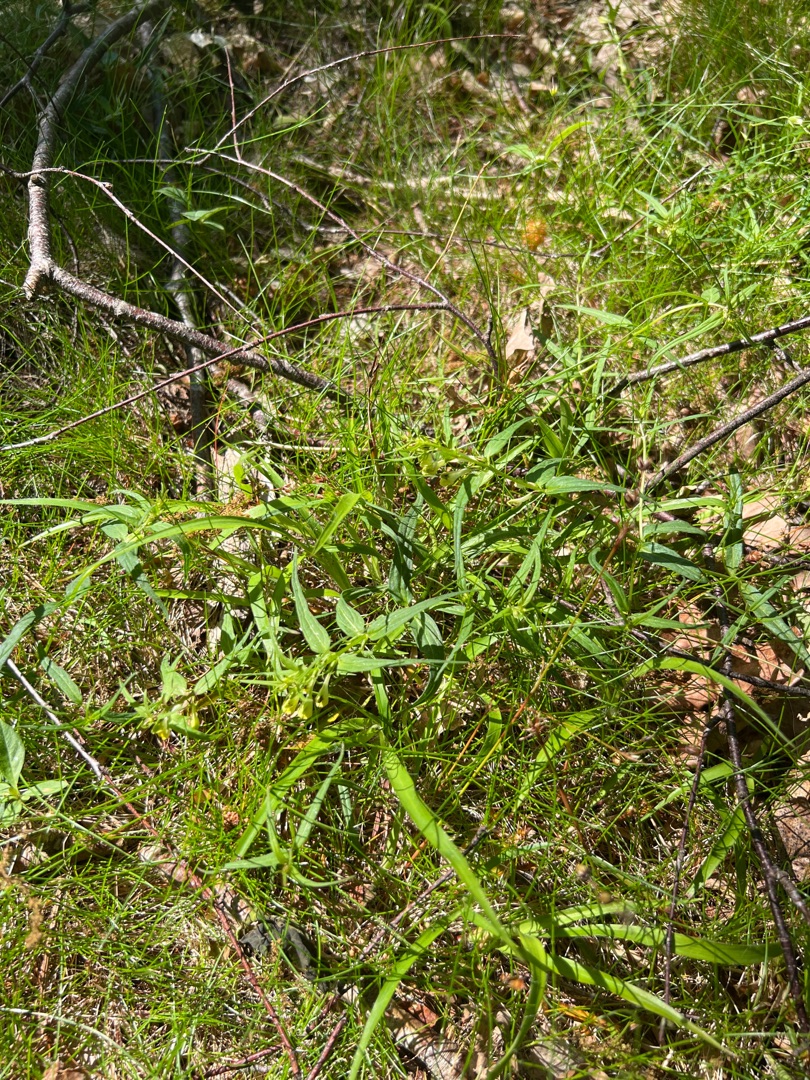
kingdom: Plantae
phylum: Tracheophyta
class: Magnoliopsida
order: Lamiales
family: Orobanchaceae
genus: Melampyrum
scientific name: Melampyrum pratense
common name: Almindelig kohvede
